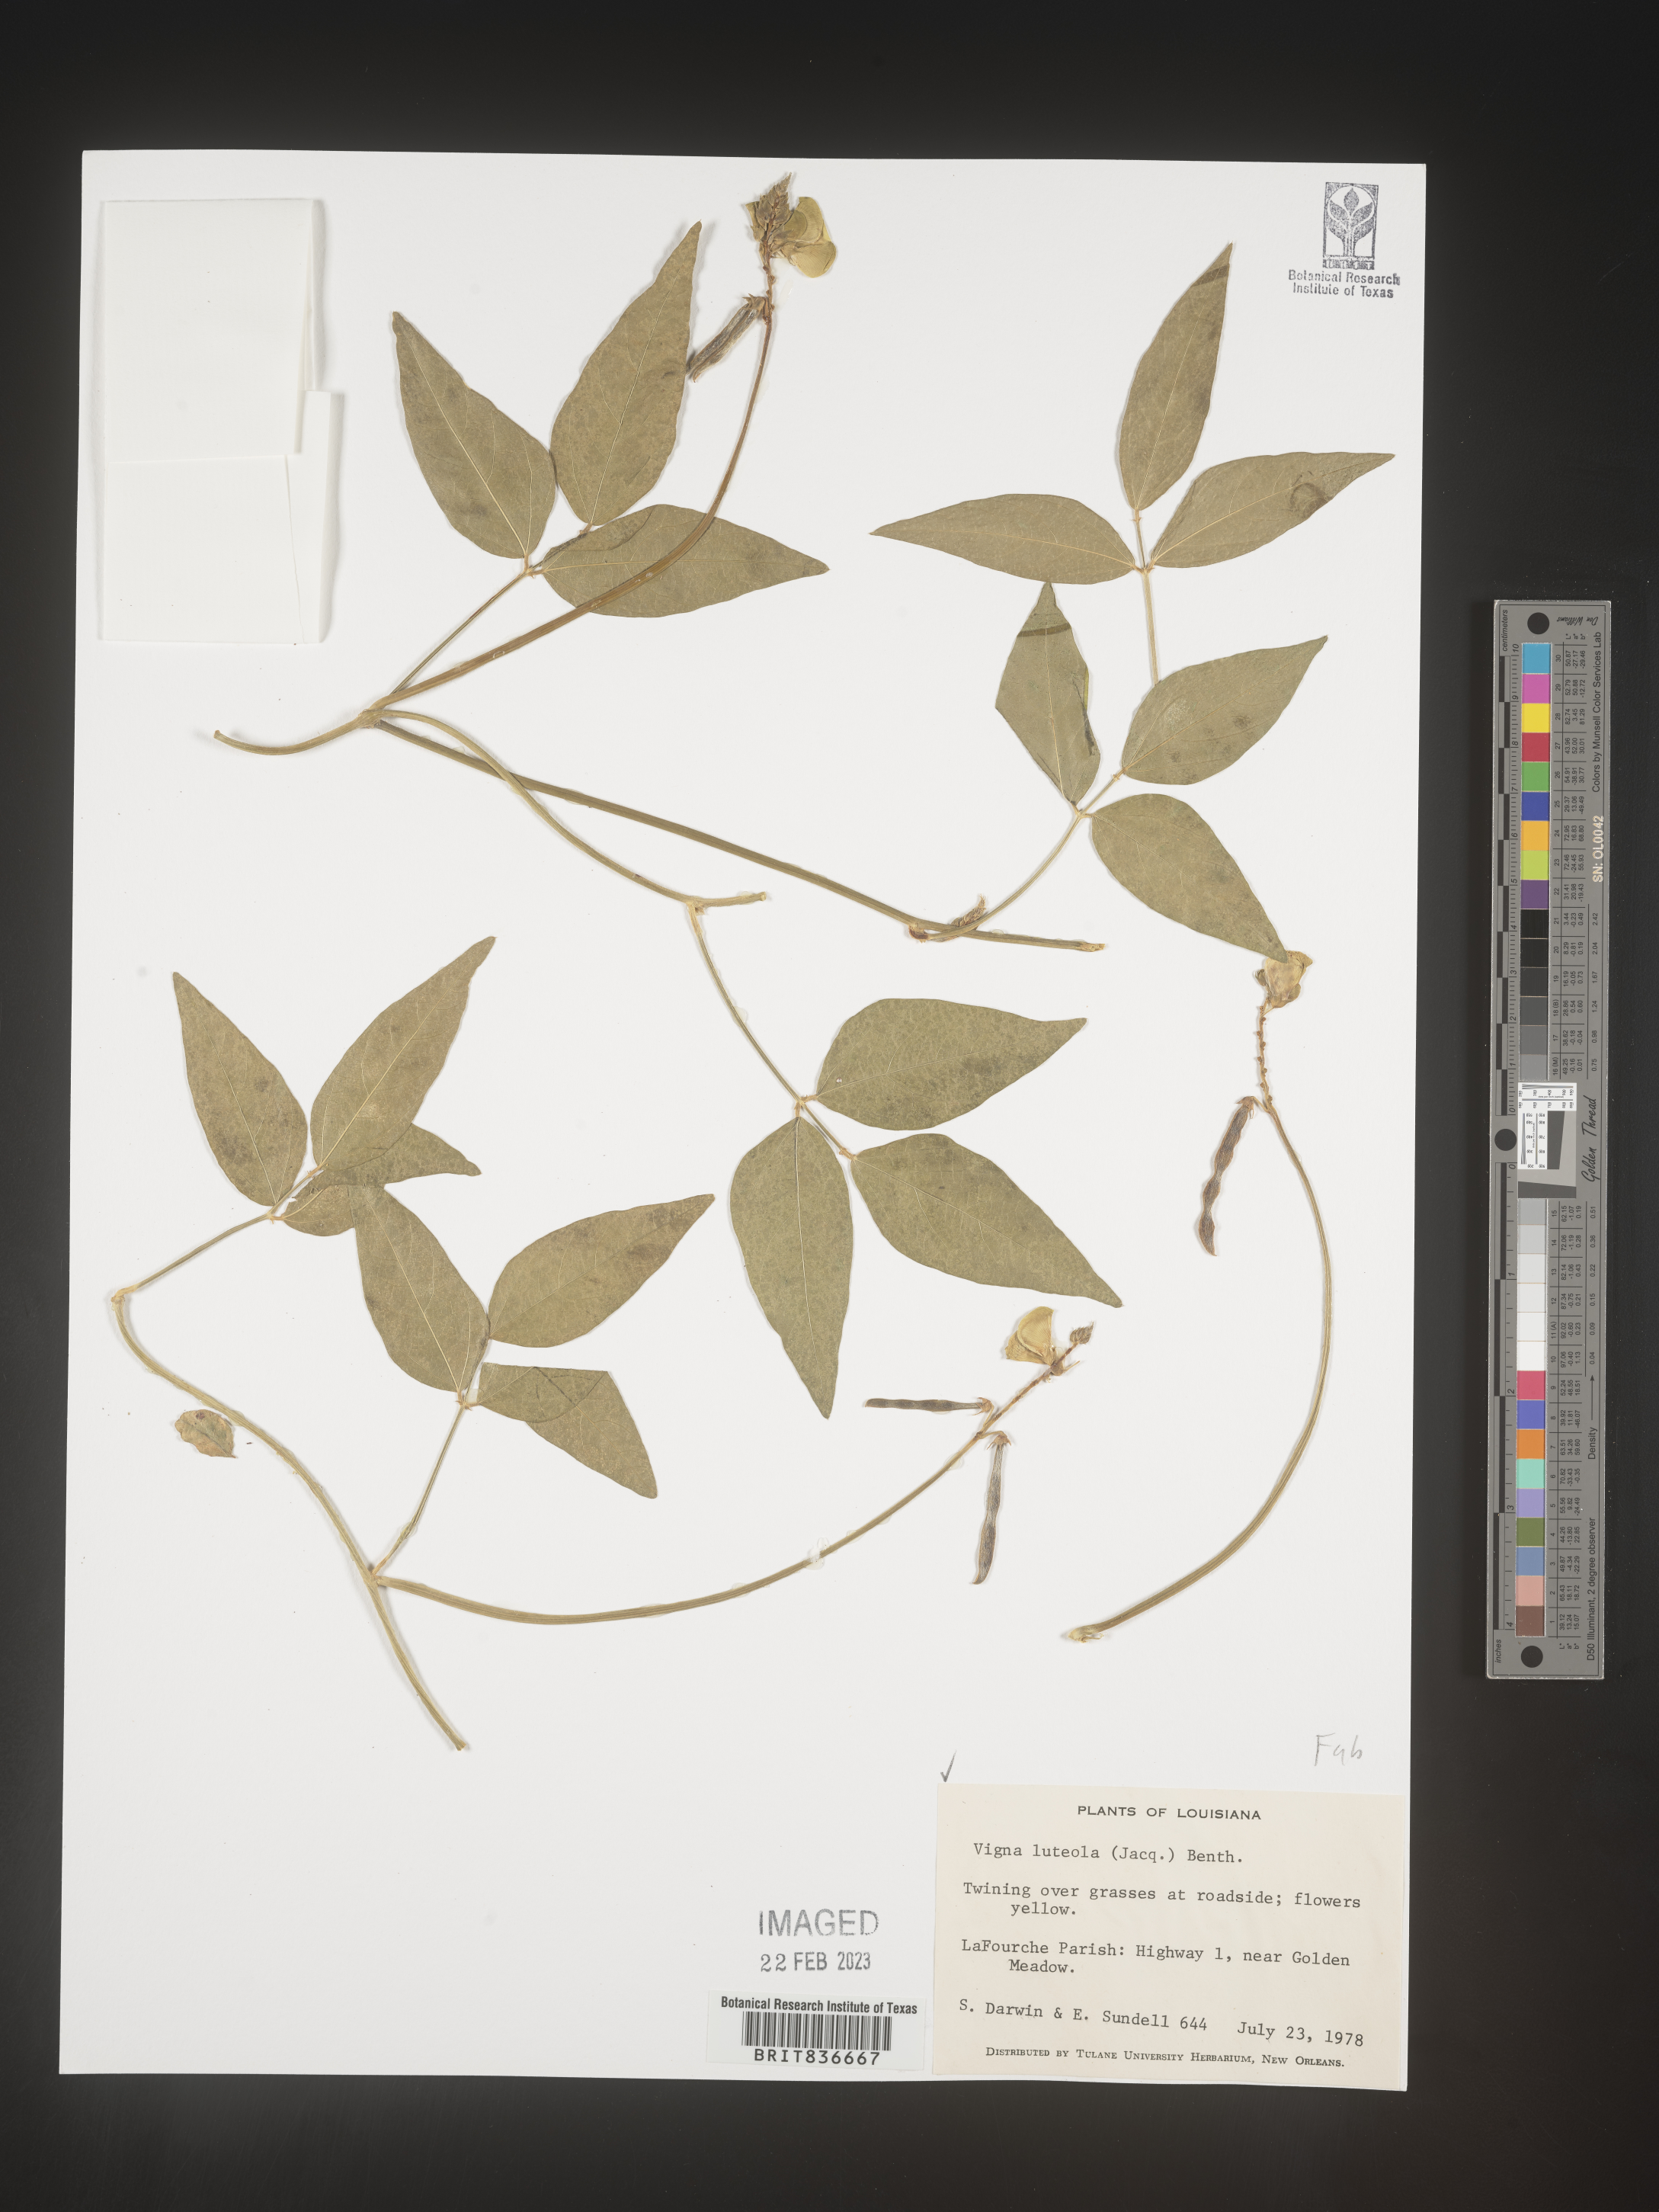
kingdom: Plantae
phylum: Tracheophyta
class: Magnoliopsida
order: Fabales
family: Fabaceae
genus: Vigna
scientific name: Vigna luteola
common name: Hairypod cowpea
